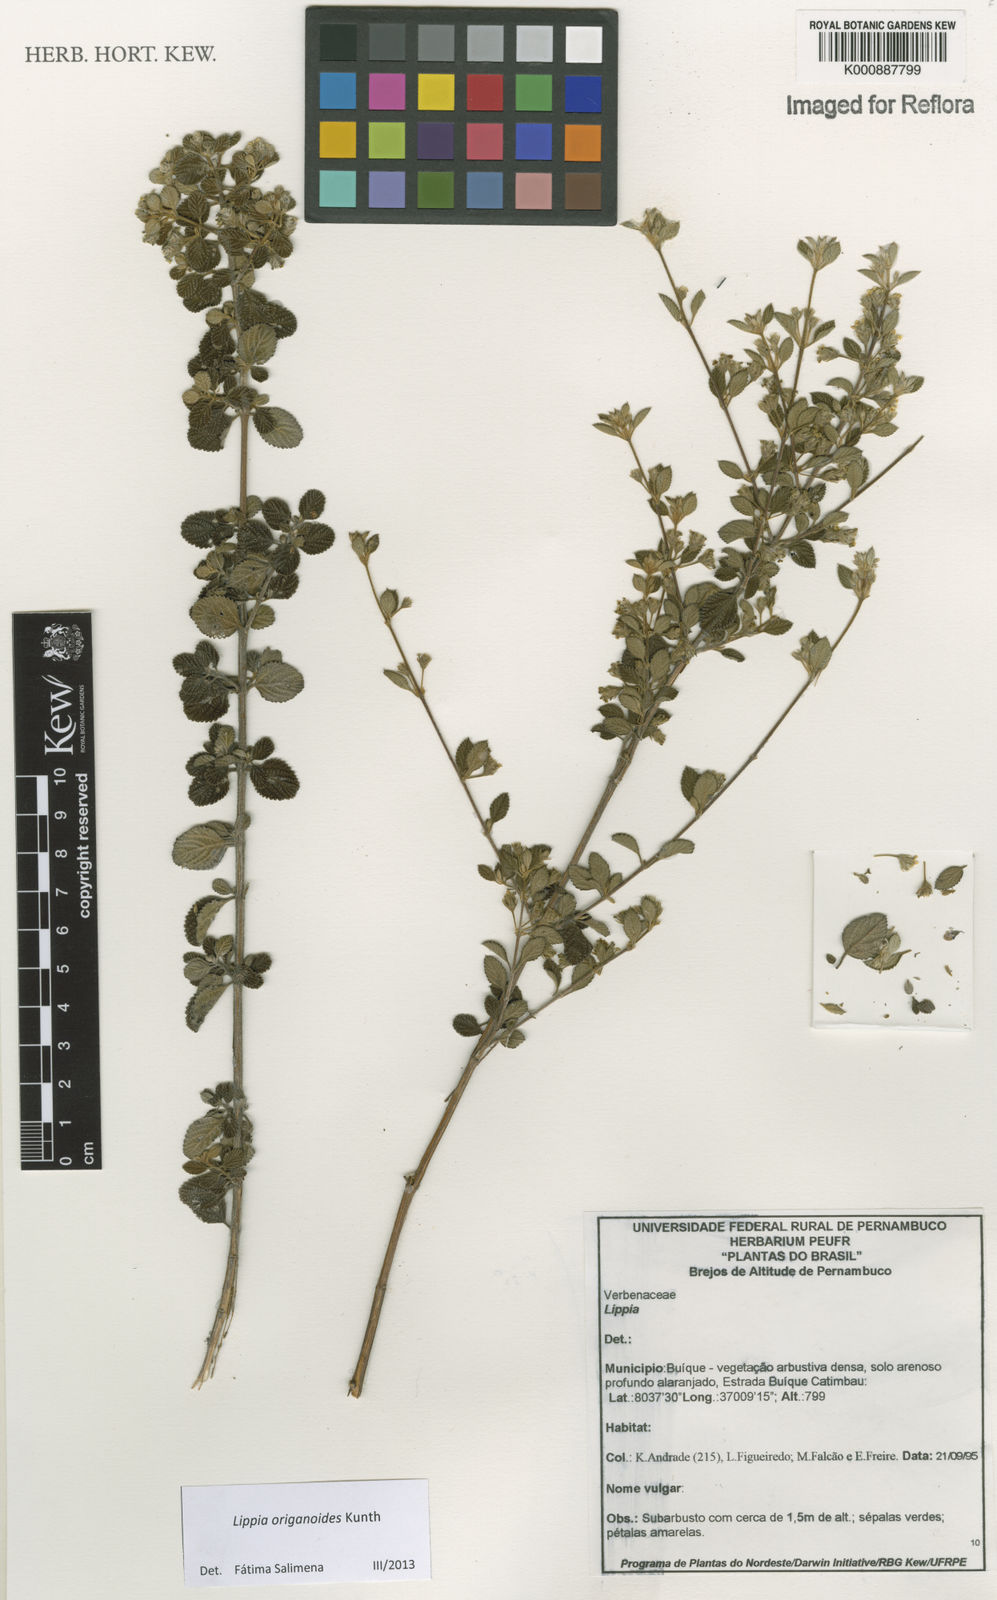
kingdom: Plantae
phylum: Tracheophyta
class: Magnoliopsida
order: Lamiales
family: Verbenaceae
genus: Lippia
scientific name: Lippia origanoides
